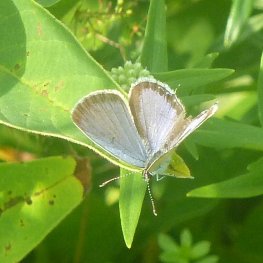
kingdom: Animalia
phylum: Arthropoda
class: Insecta
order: Lepidoptera
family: Lycaenidae
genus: Elkalyce
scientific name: Elkalyce comyntas
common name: Eastern Tailed-Blue
